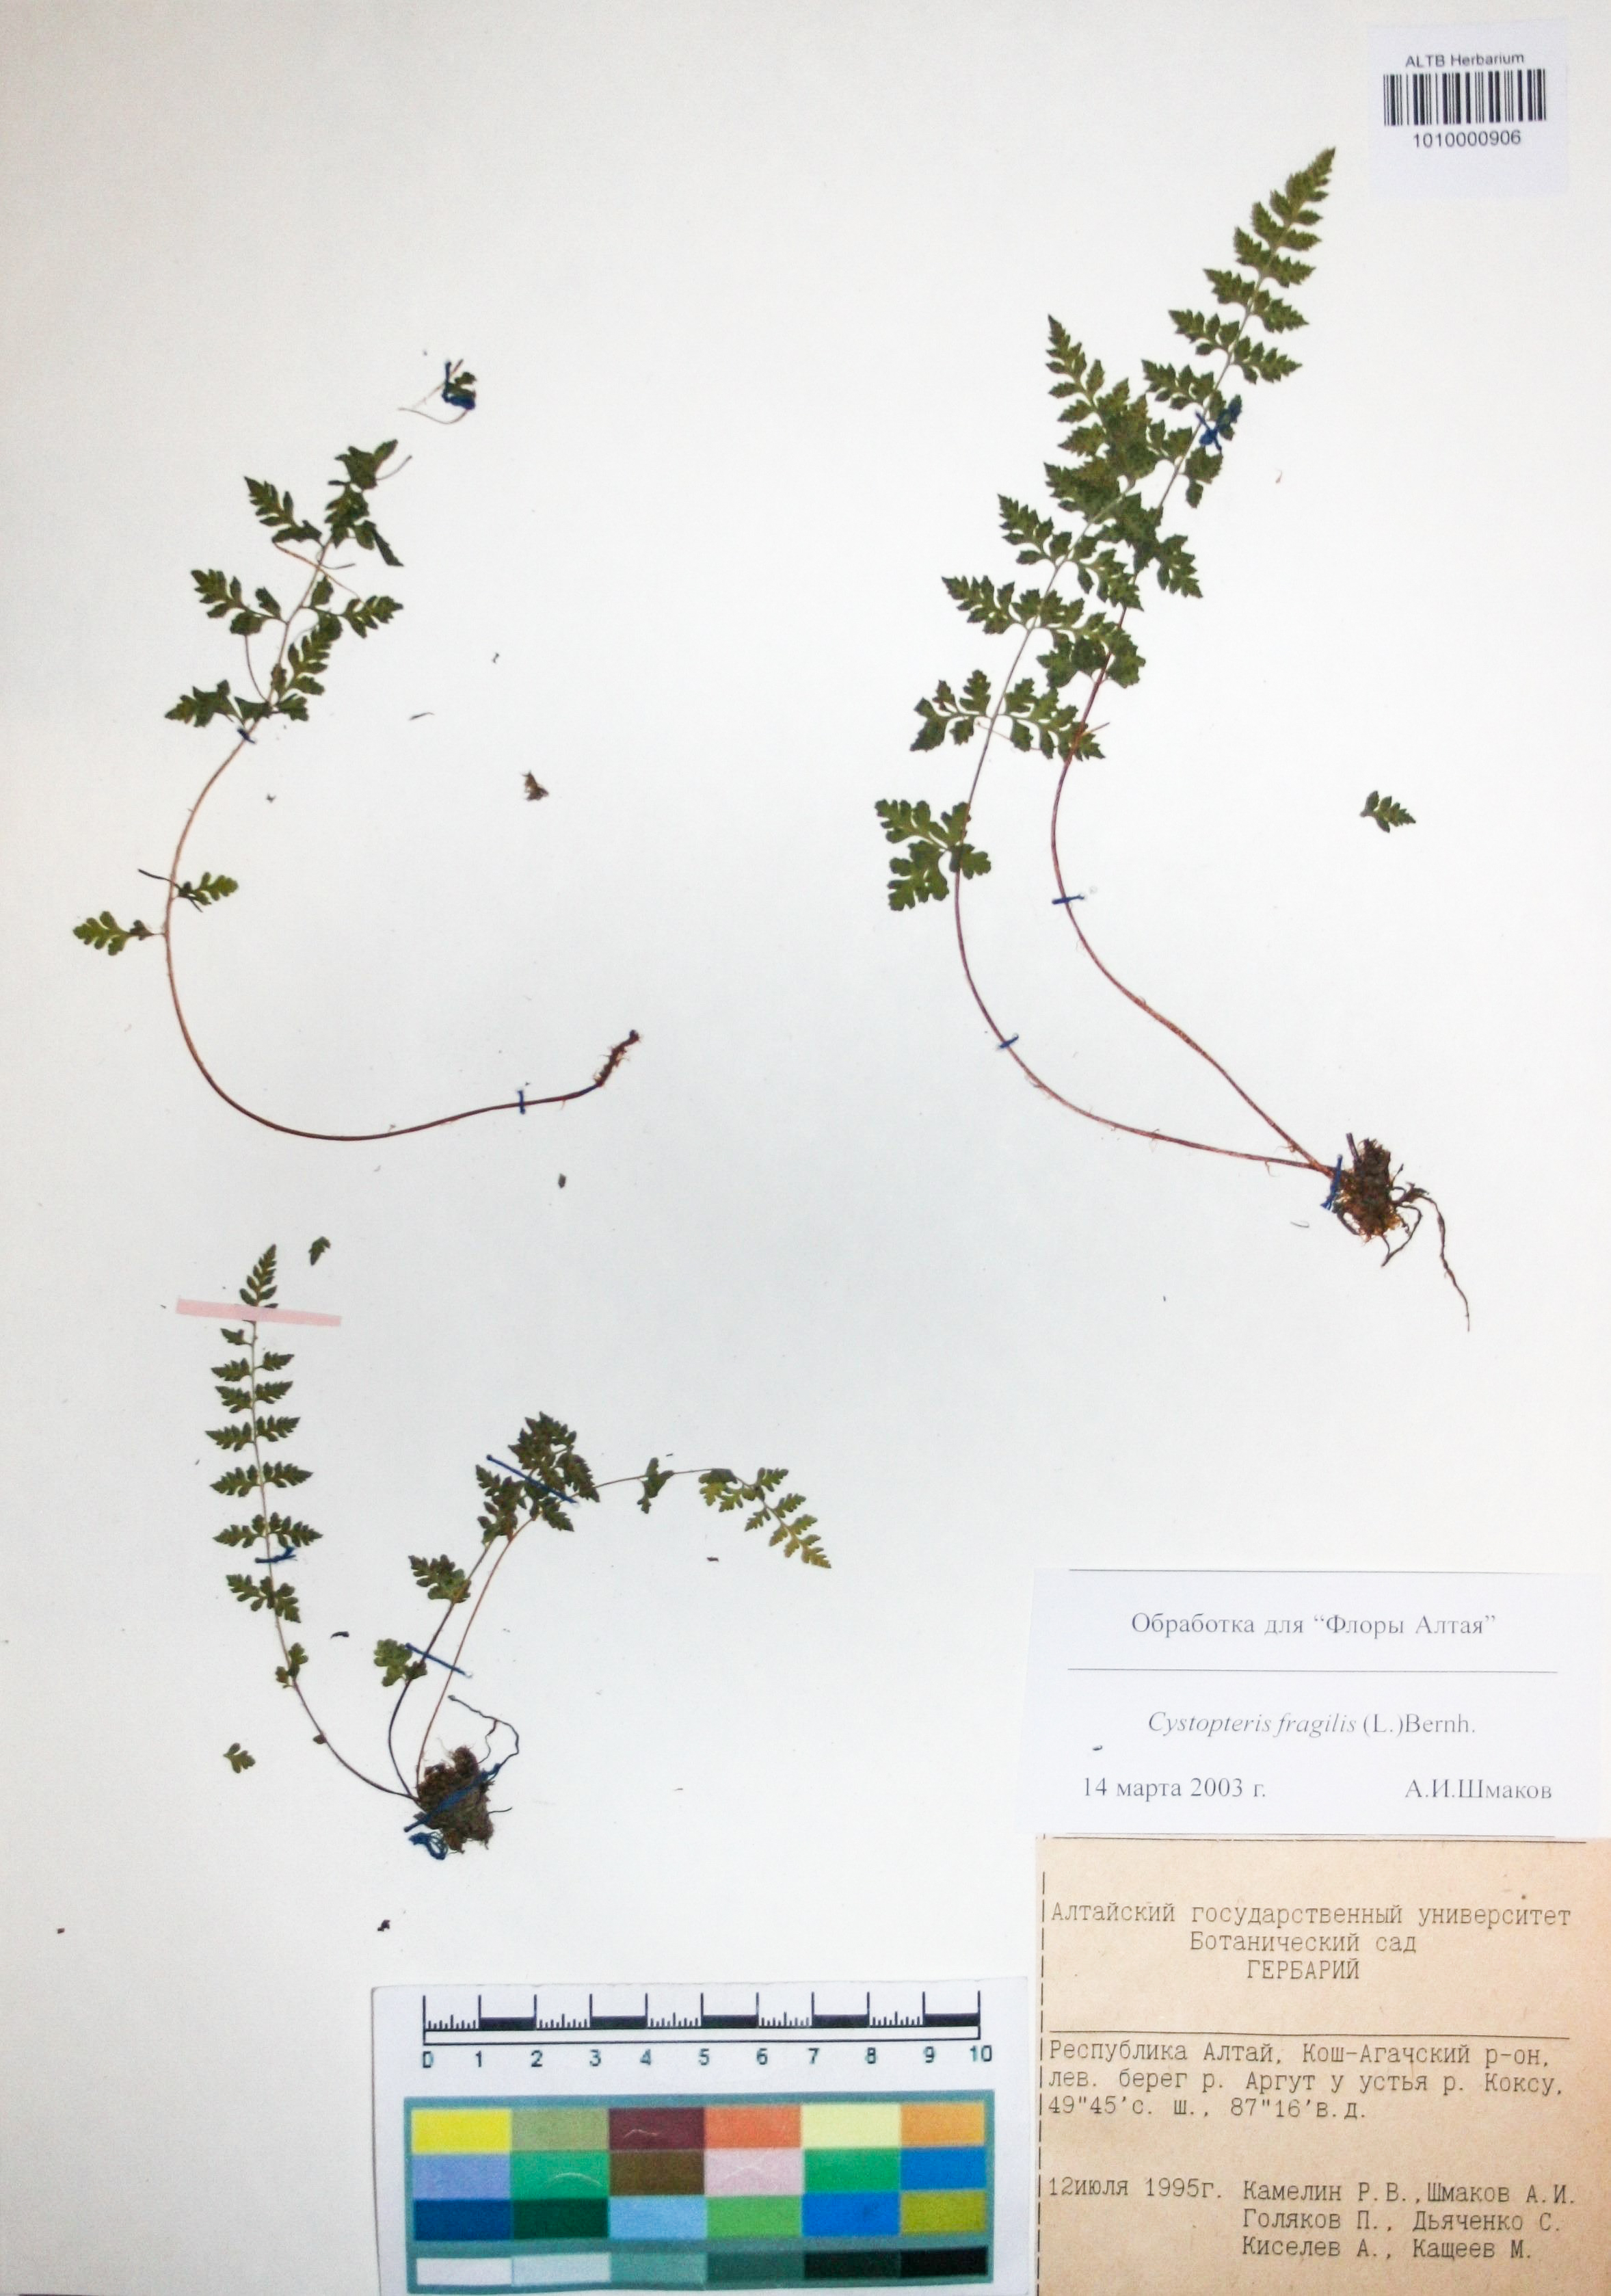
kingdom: Plantae
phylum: Tracheophyta
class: Polypodiopsida
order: Polypodiales
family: Cystopteridaceae
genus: Cystopteris
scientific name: Cystopteris fragilis
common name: Brittle bladder fern
